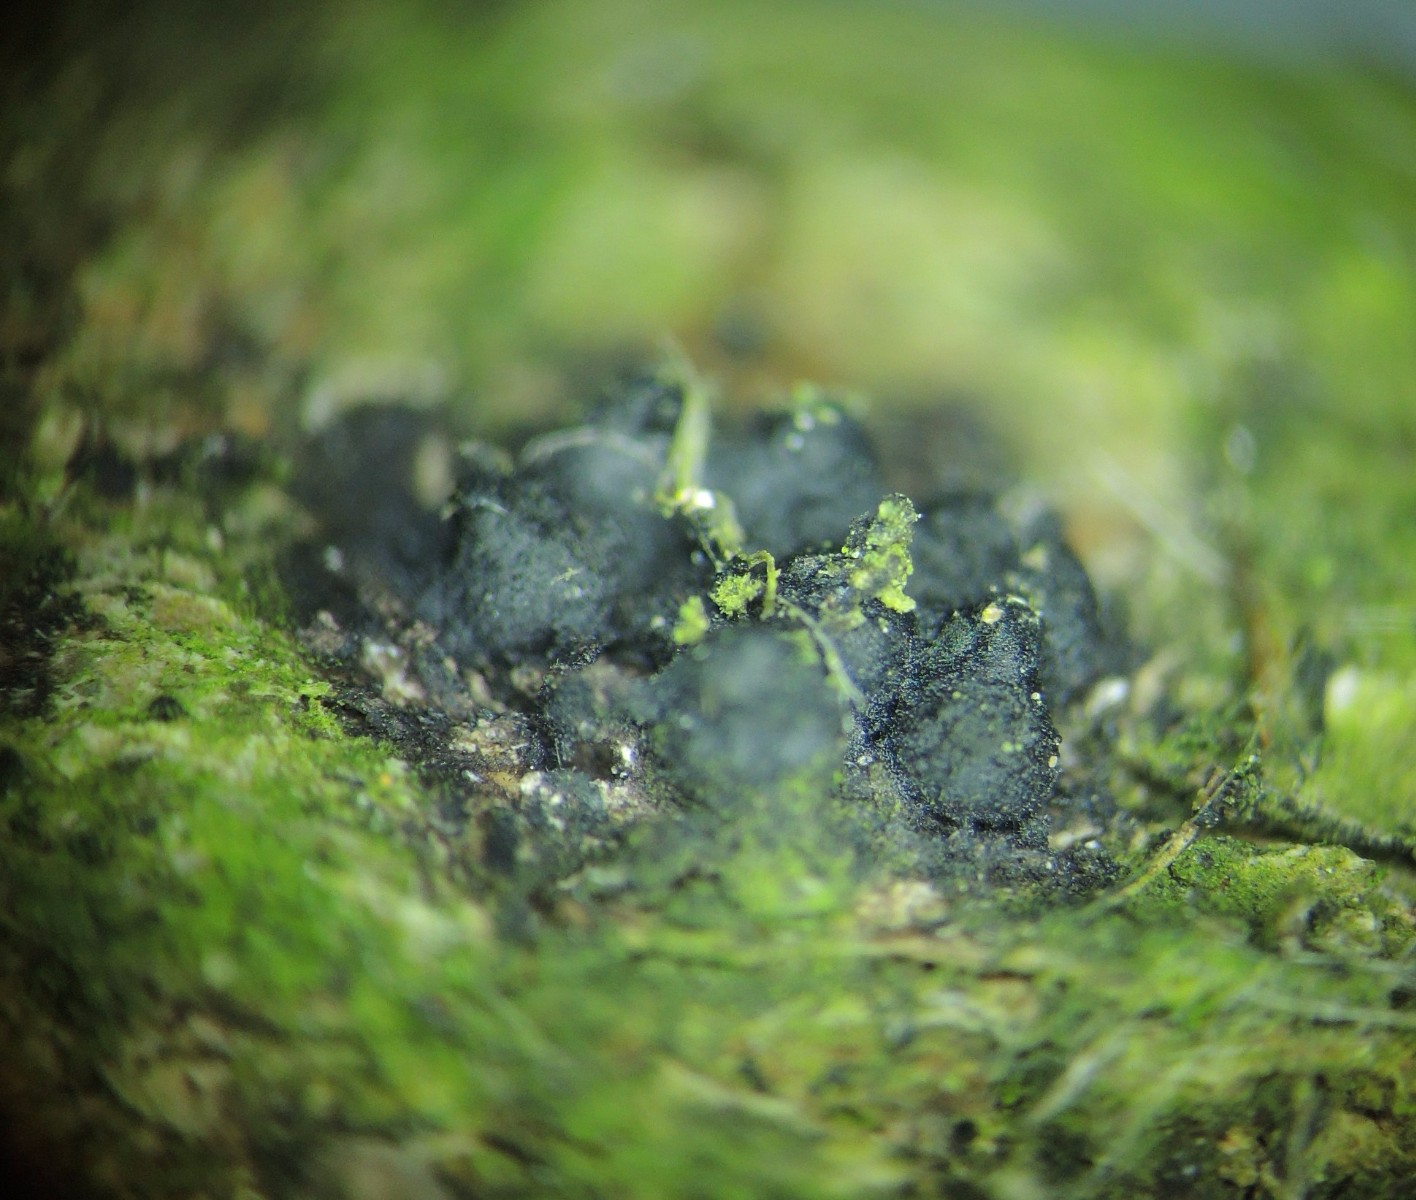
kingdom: Fungi
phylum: Ascomycota
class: Sordariomycetes
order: Xylariales
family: Xylariaceae
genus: Rosellinia
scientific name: Rosellinia
